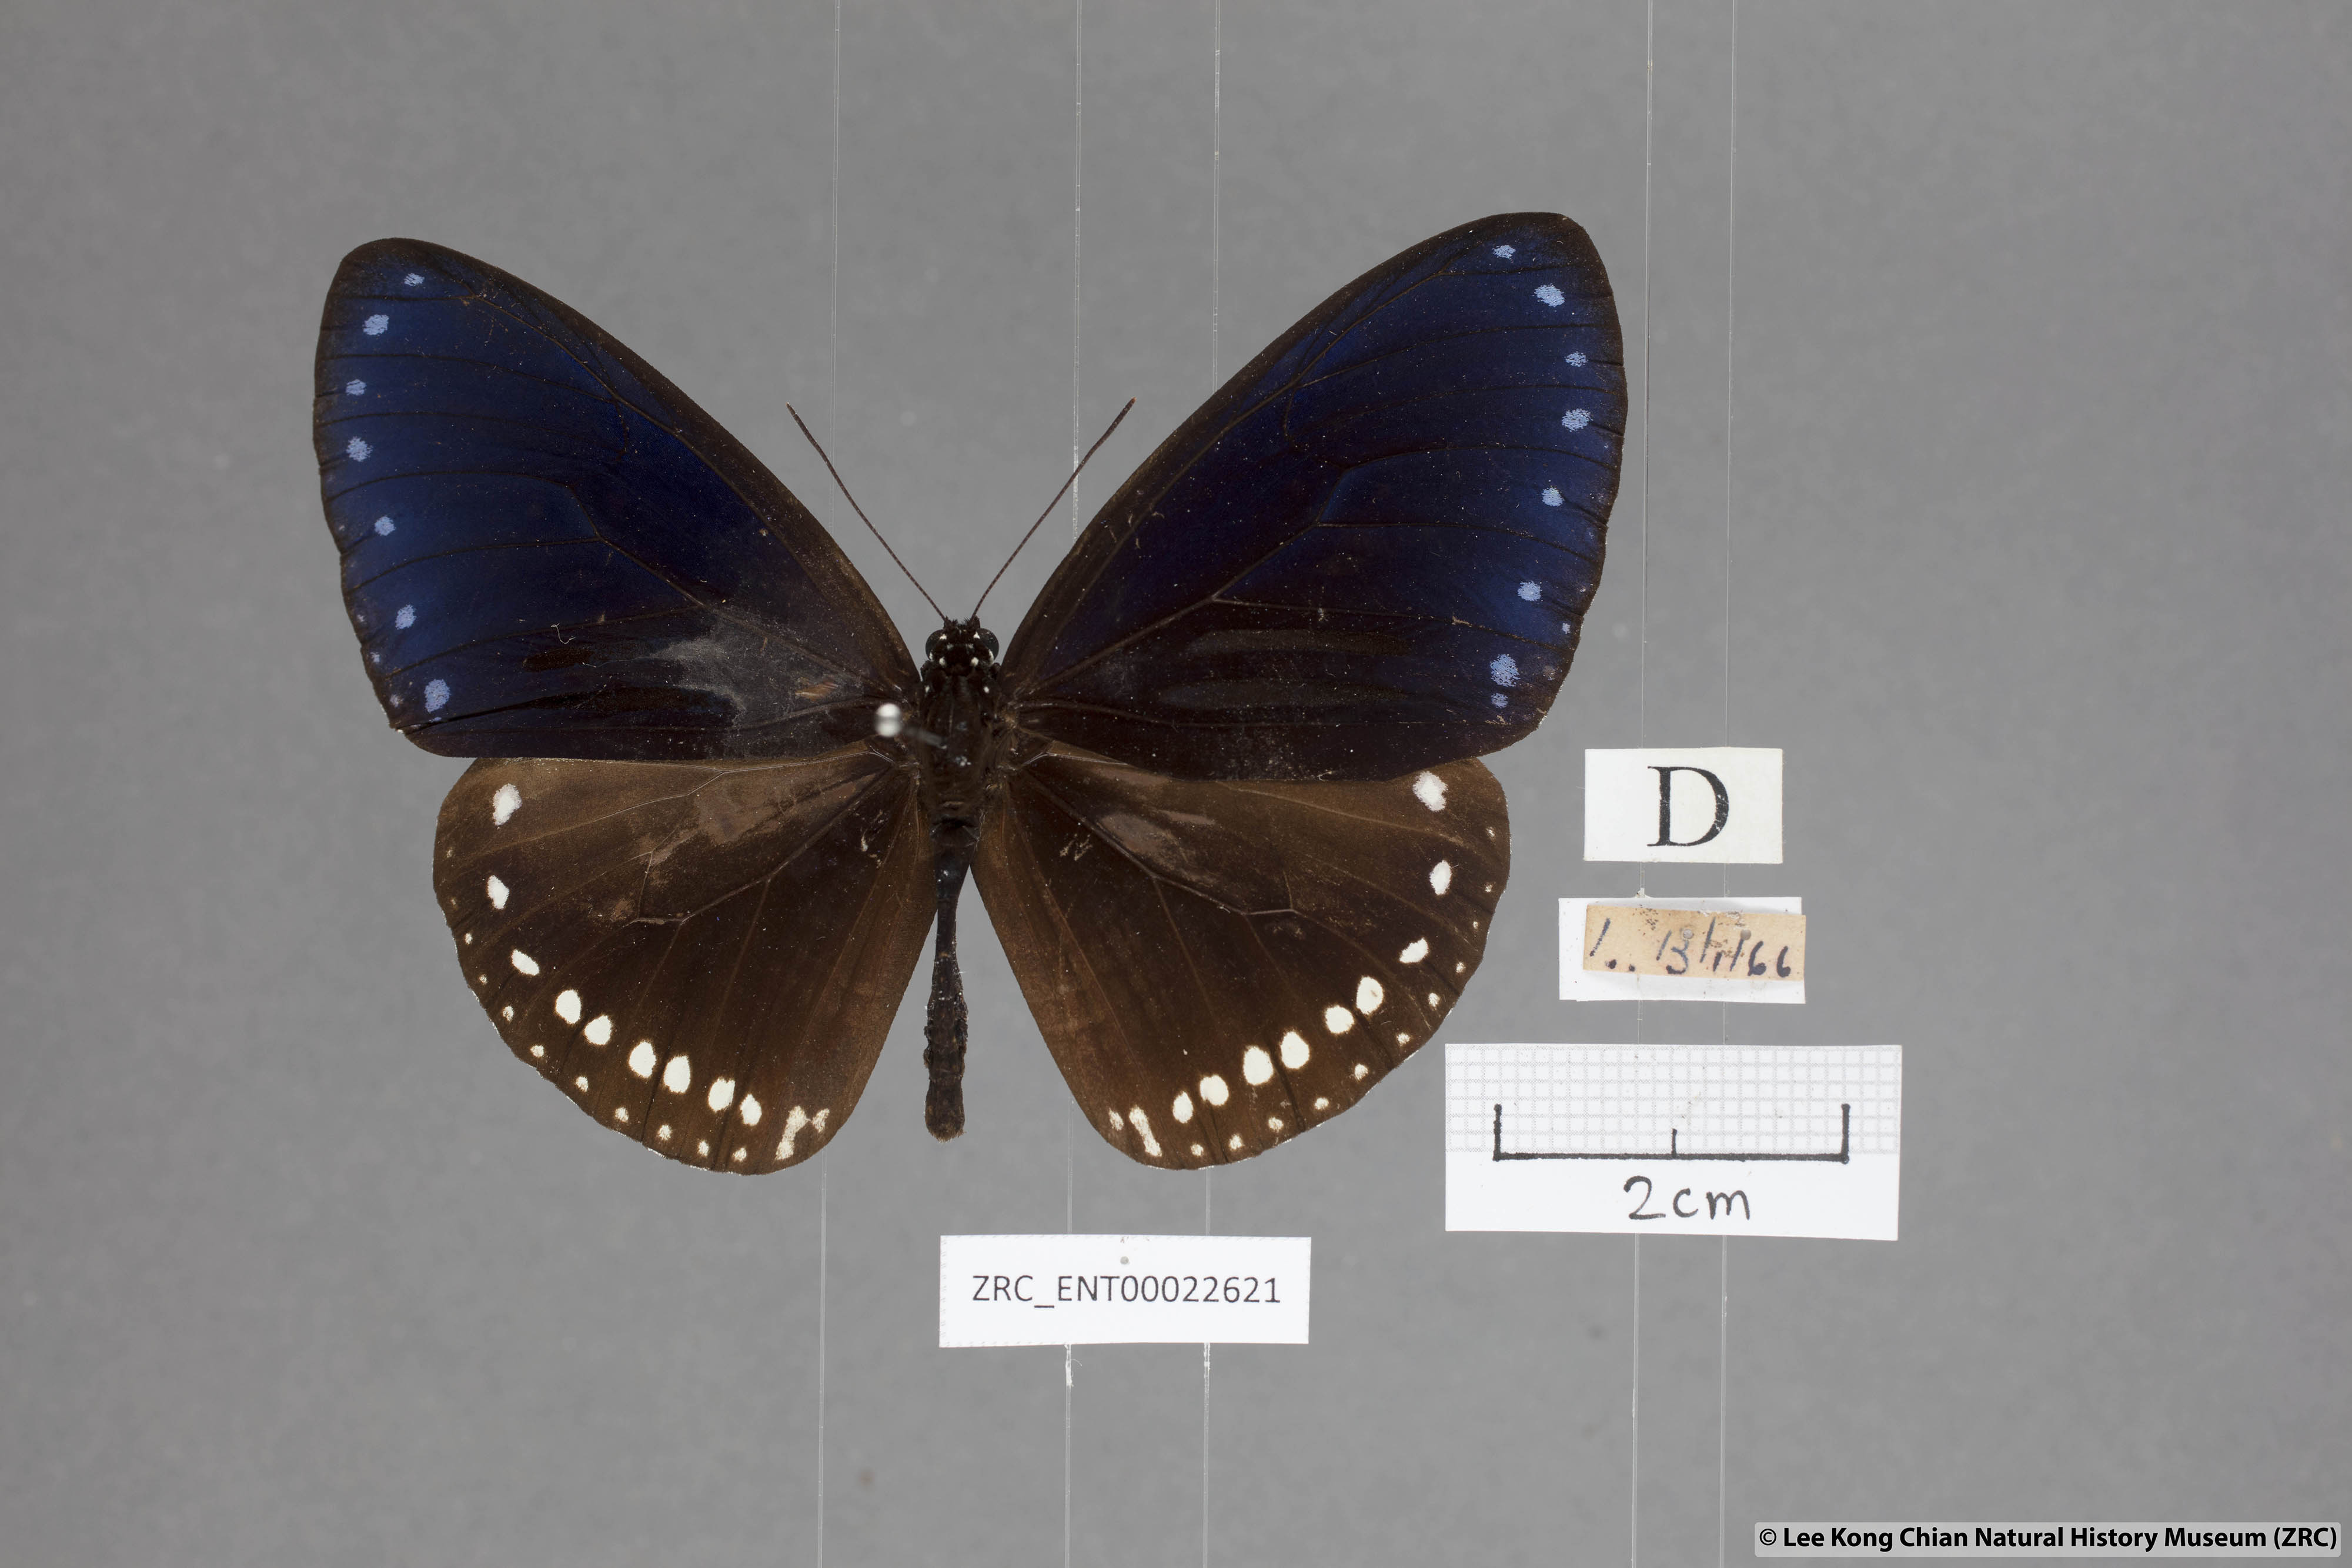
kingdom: Animalia
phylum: Arthropoda
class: Insecta
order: Lepidoptera
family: Nymphalidae
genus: Euploea
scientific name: Euploea sylvester
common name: Double-branded crow butterfly
